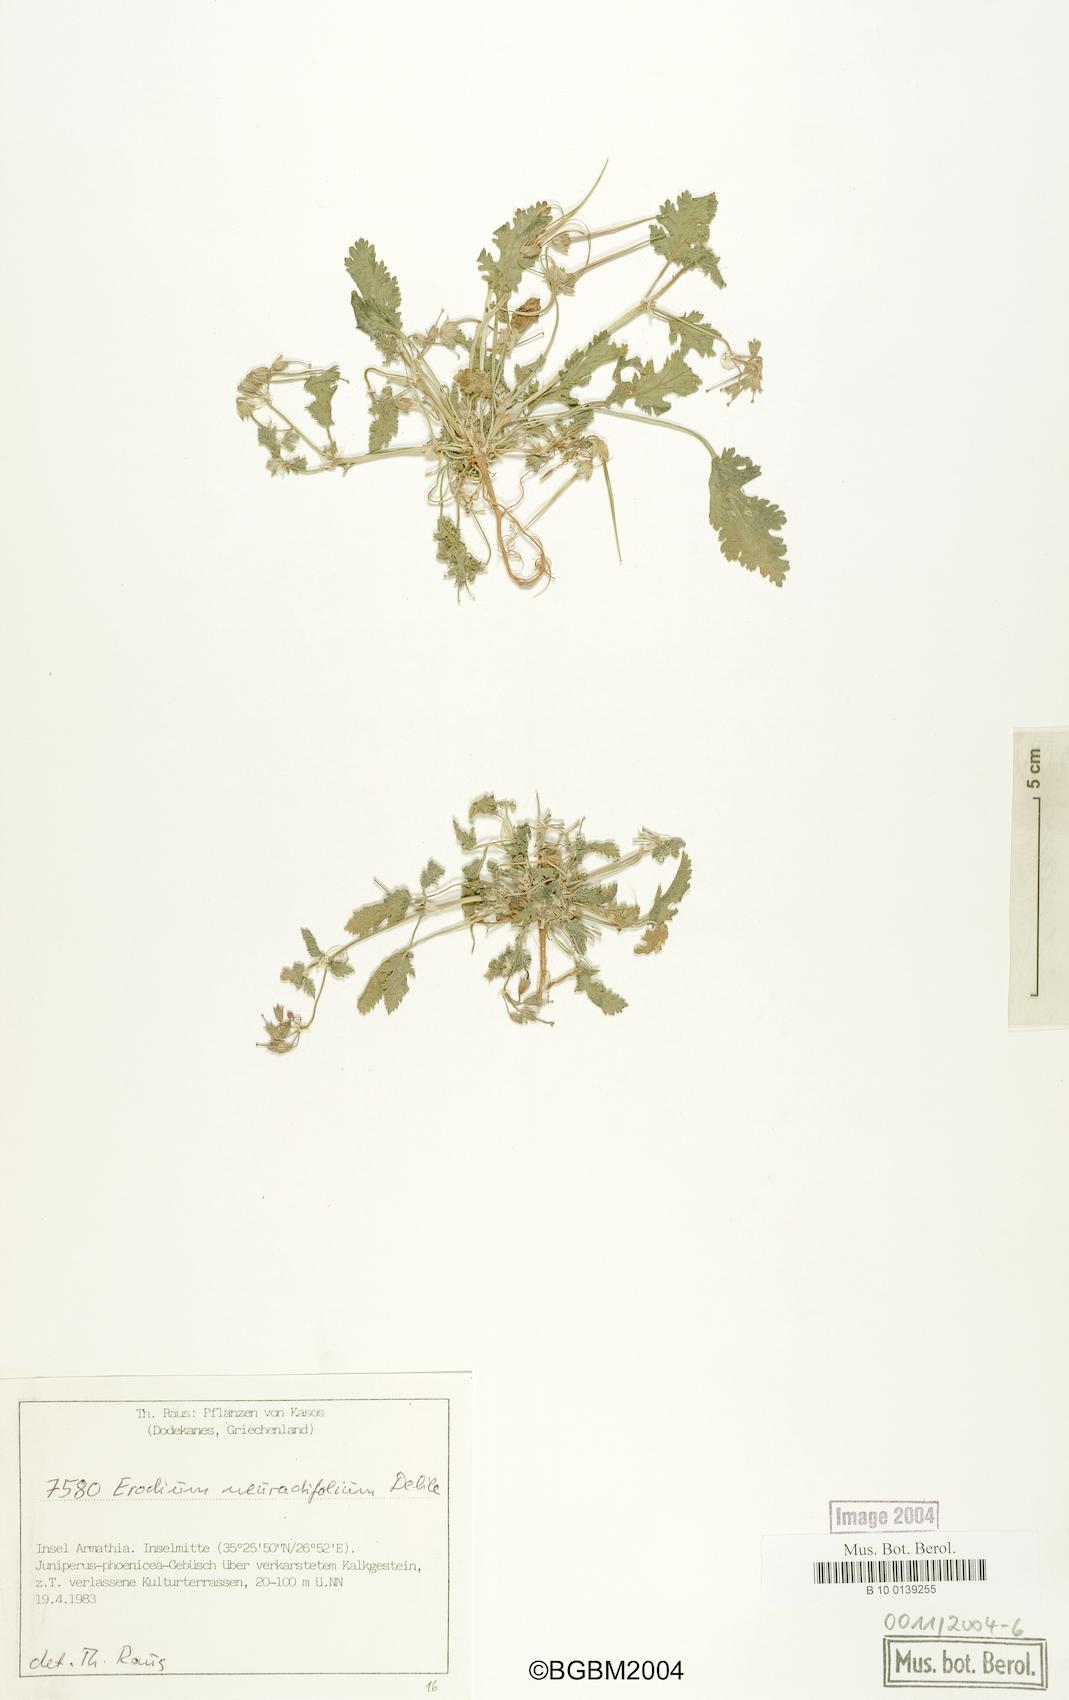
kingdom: Plantae
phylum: Tracheophyta
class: Magnoliopsida
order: Geraniales
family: Geraniaceae
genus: Erodium
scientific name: Erodium malacoides
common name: Soft stork's-bill
